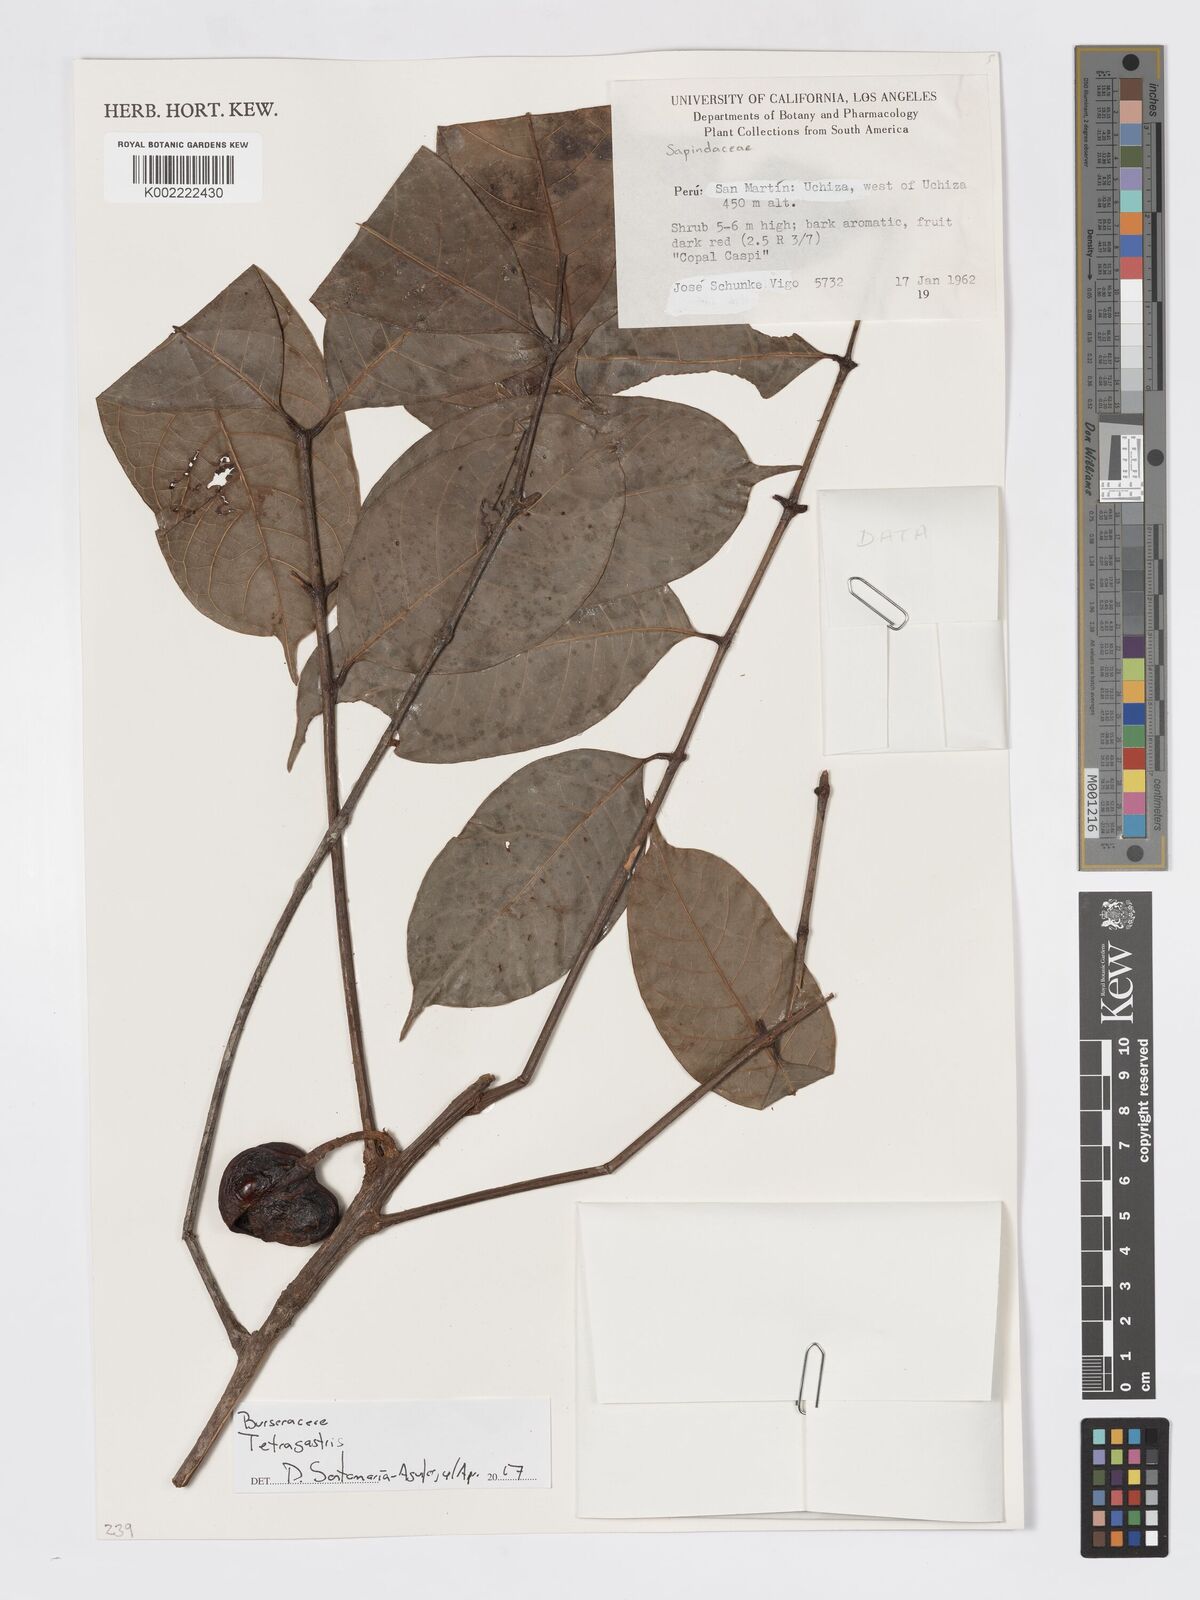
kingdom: Plantae
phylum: Tracheophyta
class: Magnoliopsida
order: Sapindales
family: Burseraceae
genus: Tetragastris
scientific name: Tetragastris
